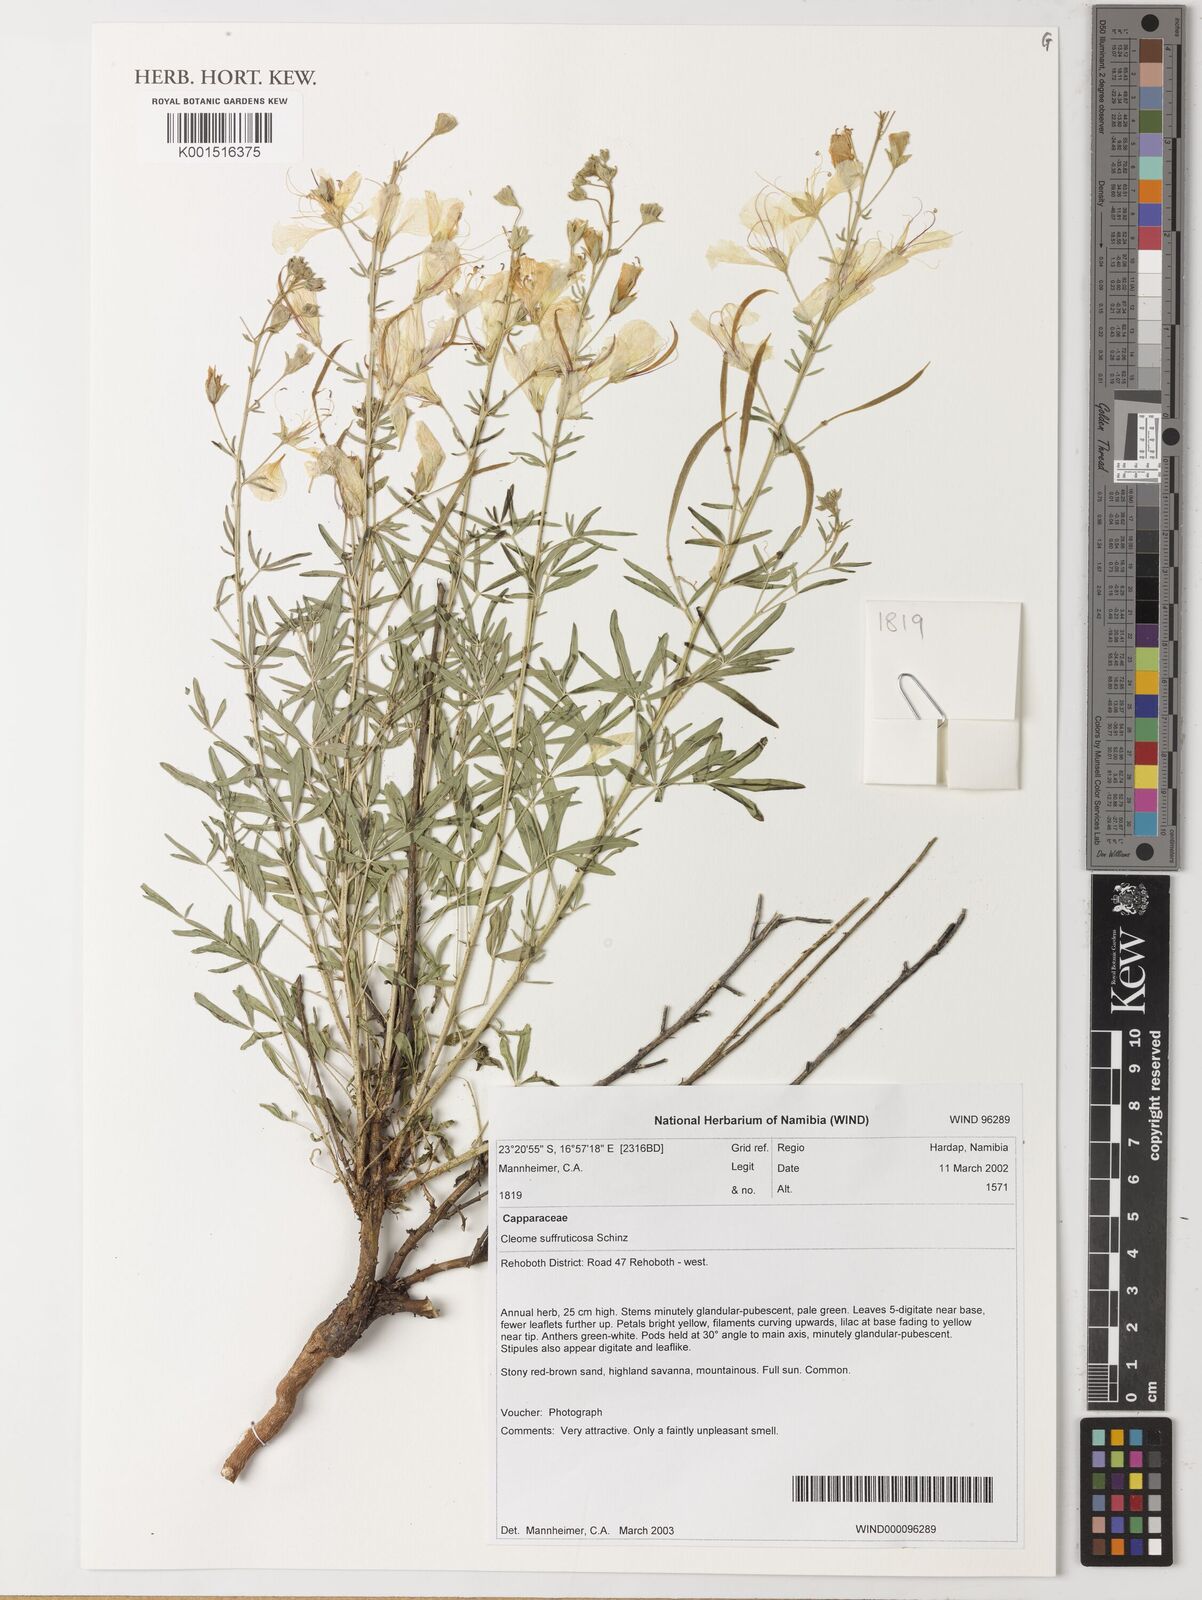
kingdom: Plantae
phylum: Tracheophyta
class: Magnoliopsida
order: Brassicales
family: Cleomaceae
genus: Kersia
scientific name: Kersia suffruticosa
